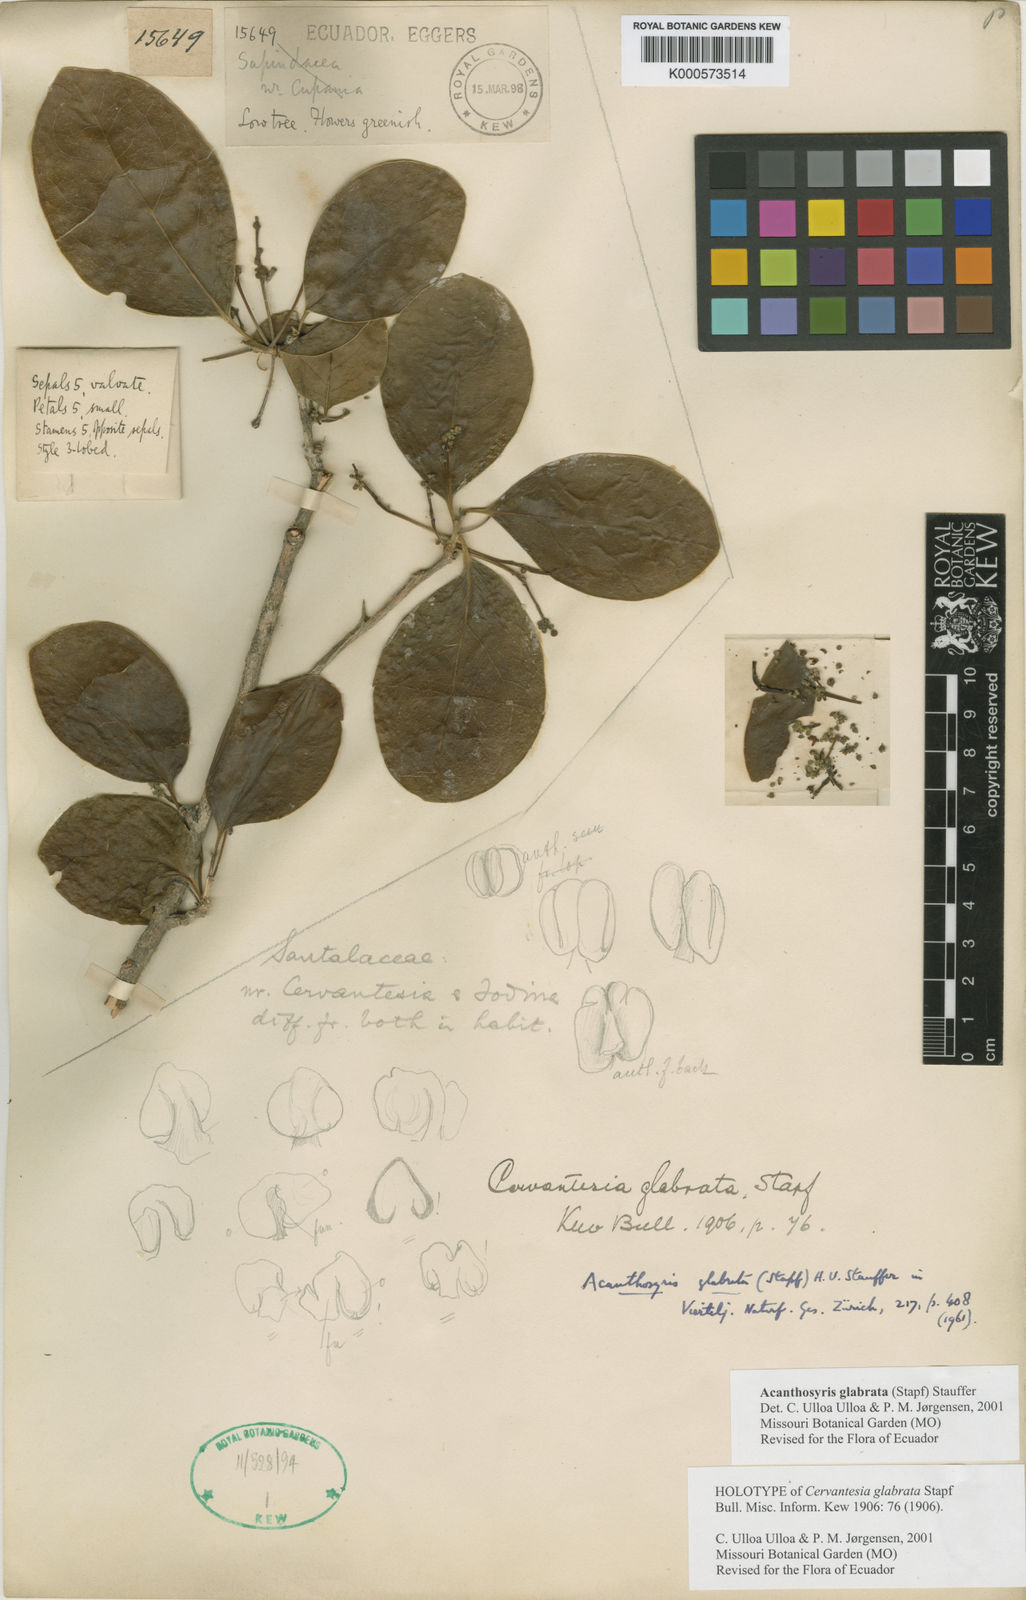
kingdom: Plantae
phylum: Tracheophyta
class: Magnoliopsida
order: Santalales
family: Cervantesiaceae
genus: Acanthosyris
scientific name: Acanthosyris
